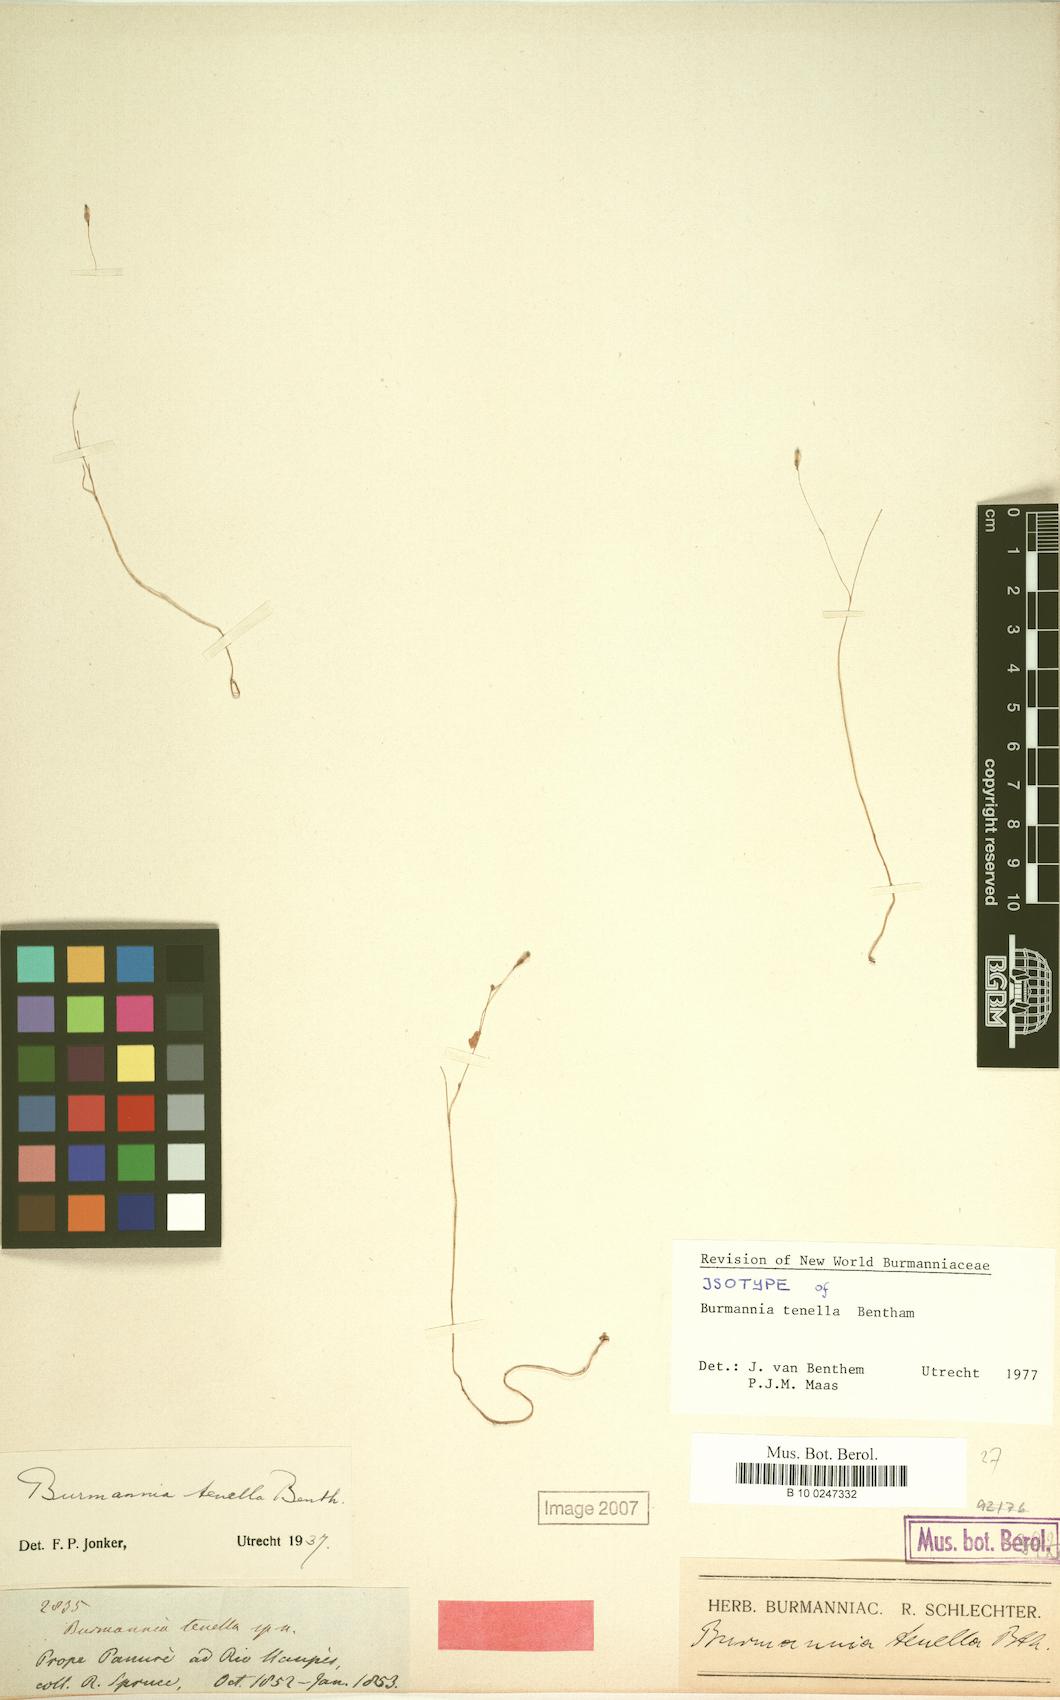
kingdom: Plantae
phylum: Tracheophyta
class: Liliopsida
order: Dioscoreales
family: Burmanniaceae
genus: Burmannia
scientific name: Burmannia tenella
